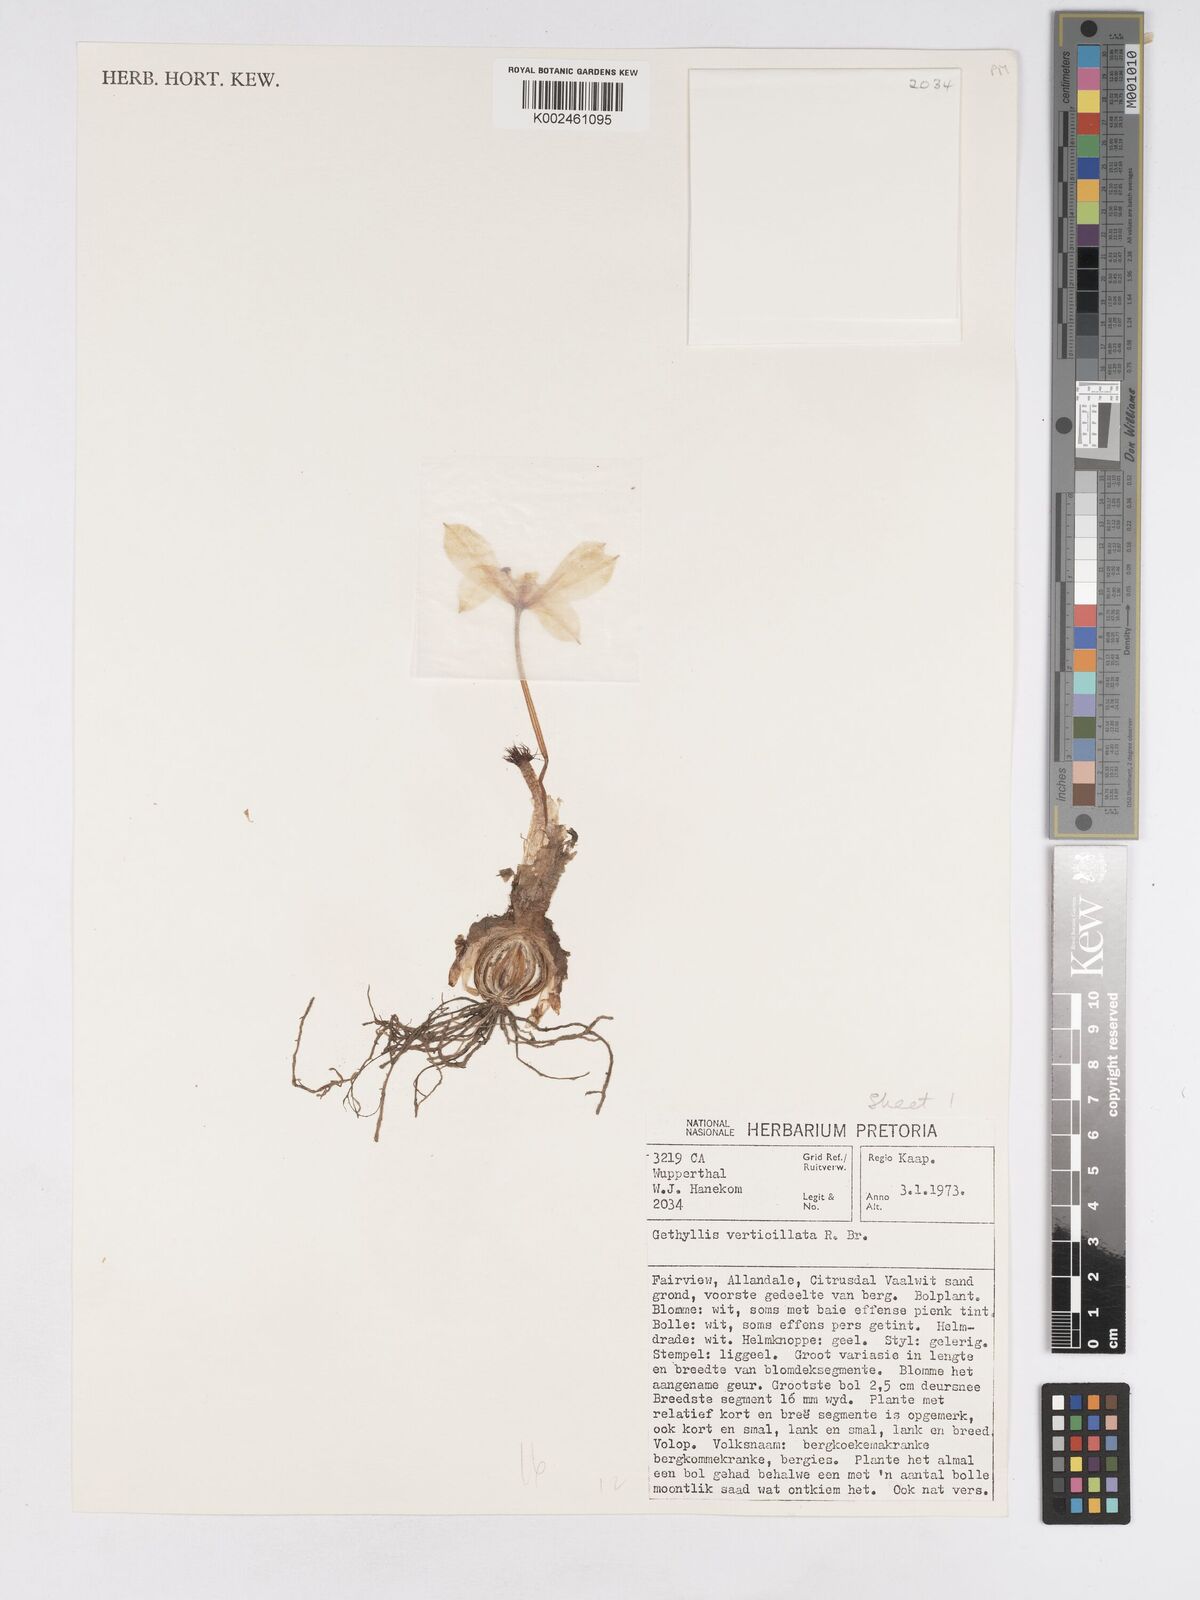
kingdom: Plantae
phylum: Tracheophyta
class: Liliopsida
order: Asparagales
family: Amaryllidaceae
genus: Gethyllis
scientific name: Gethyllis verticillata
